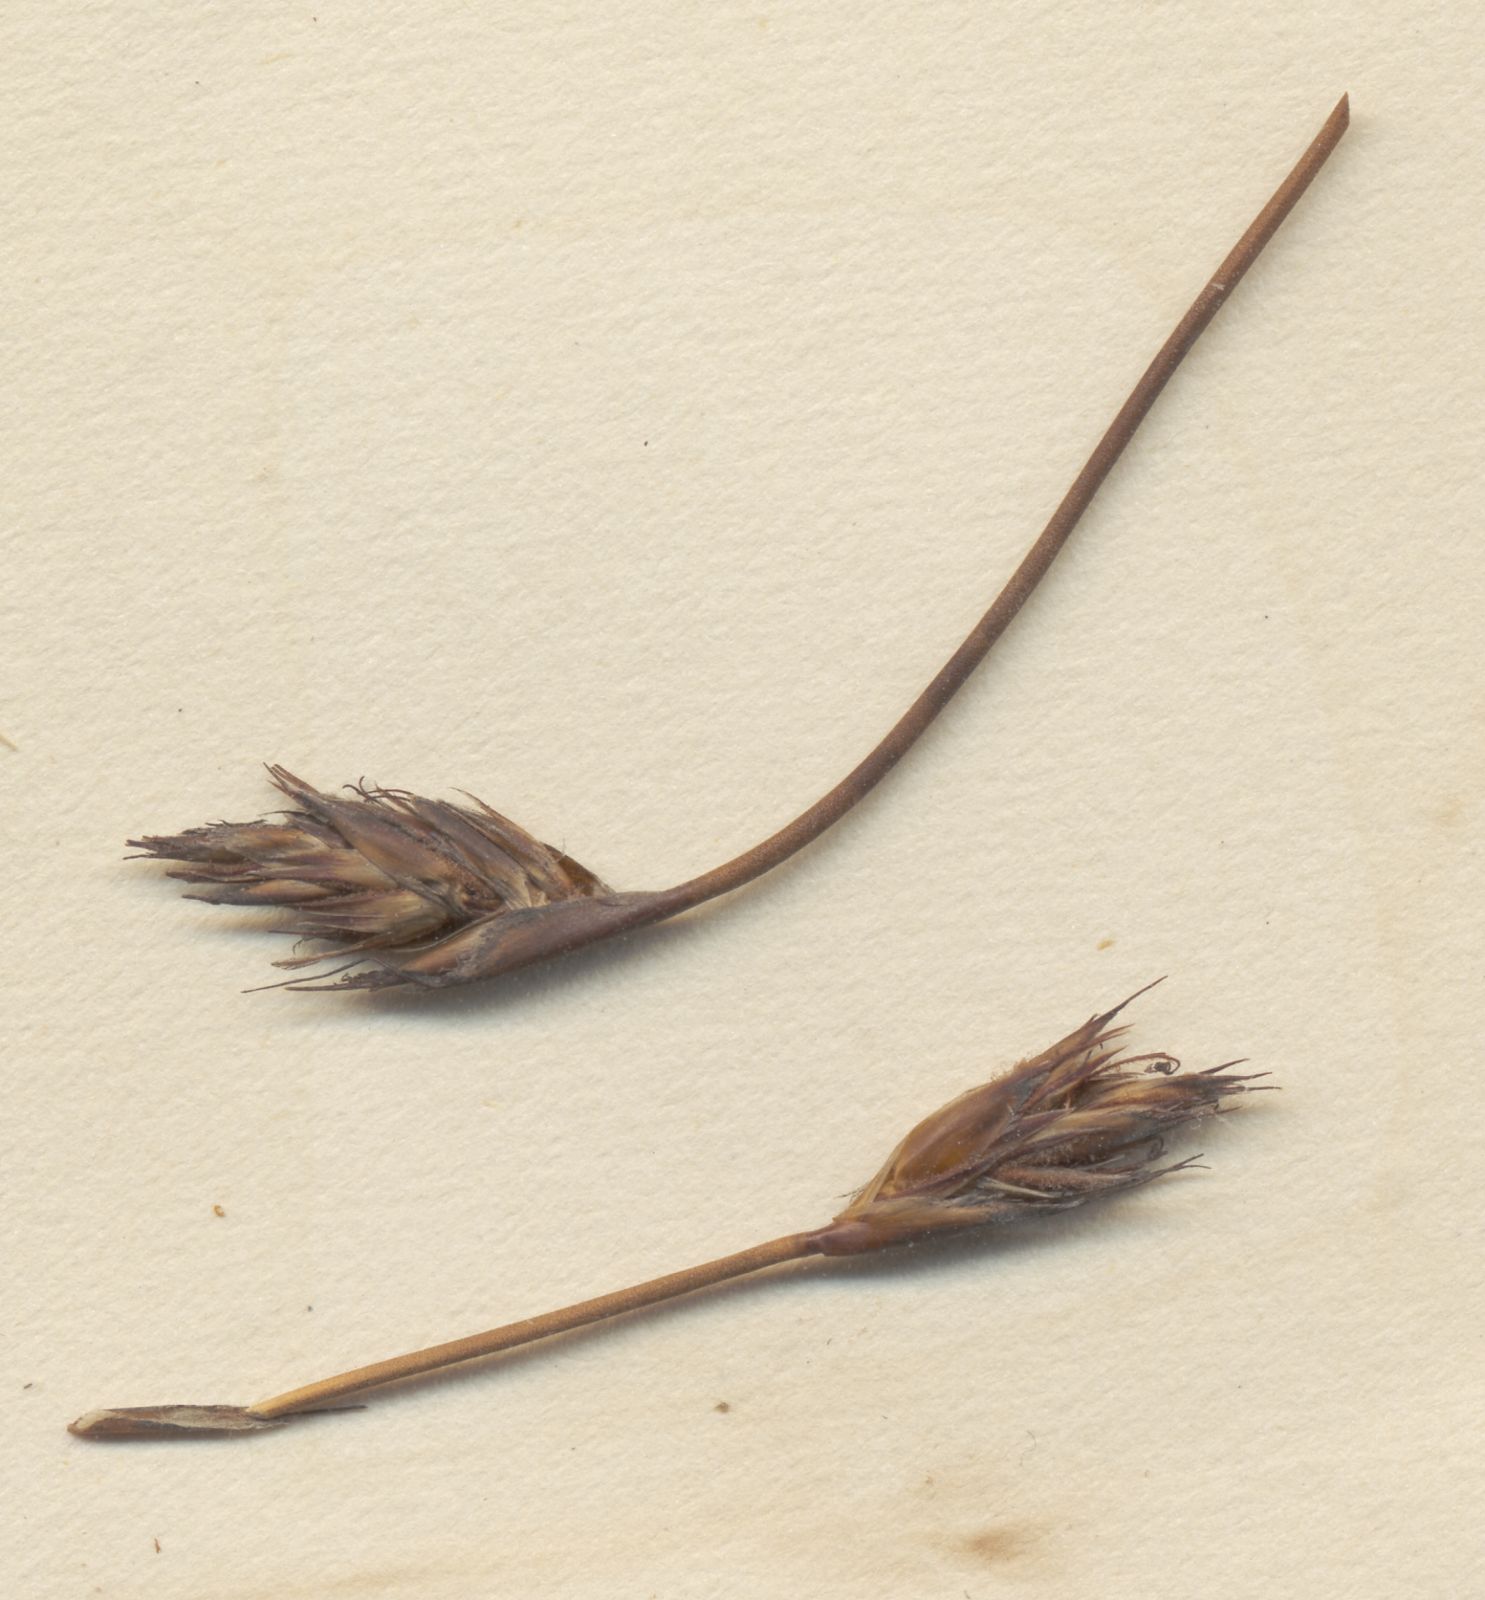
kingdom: Plantae
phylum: Tracheophyta
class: Liliopsida
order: Poales
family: Restionaceae
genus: Restio
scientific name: Restio gossypinus
